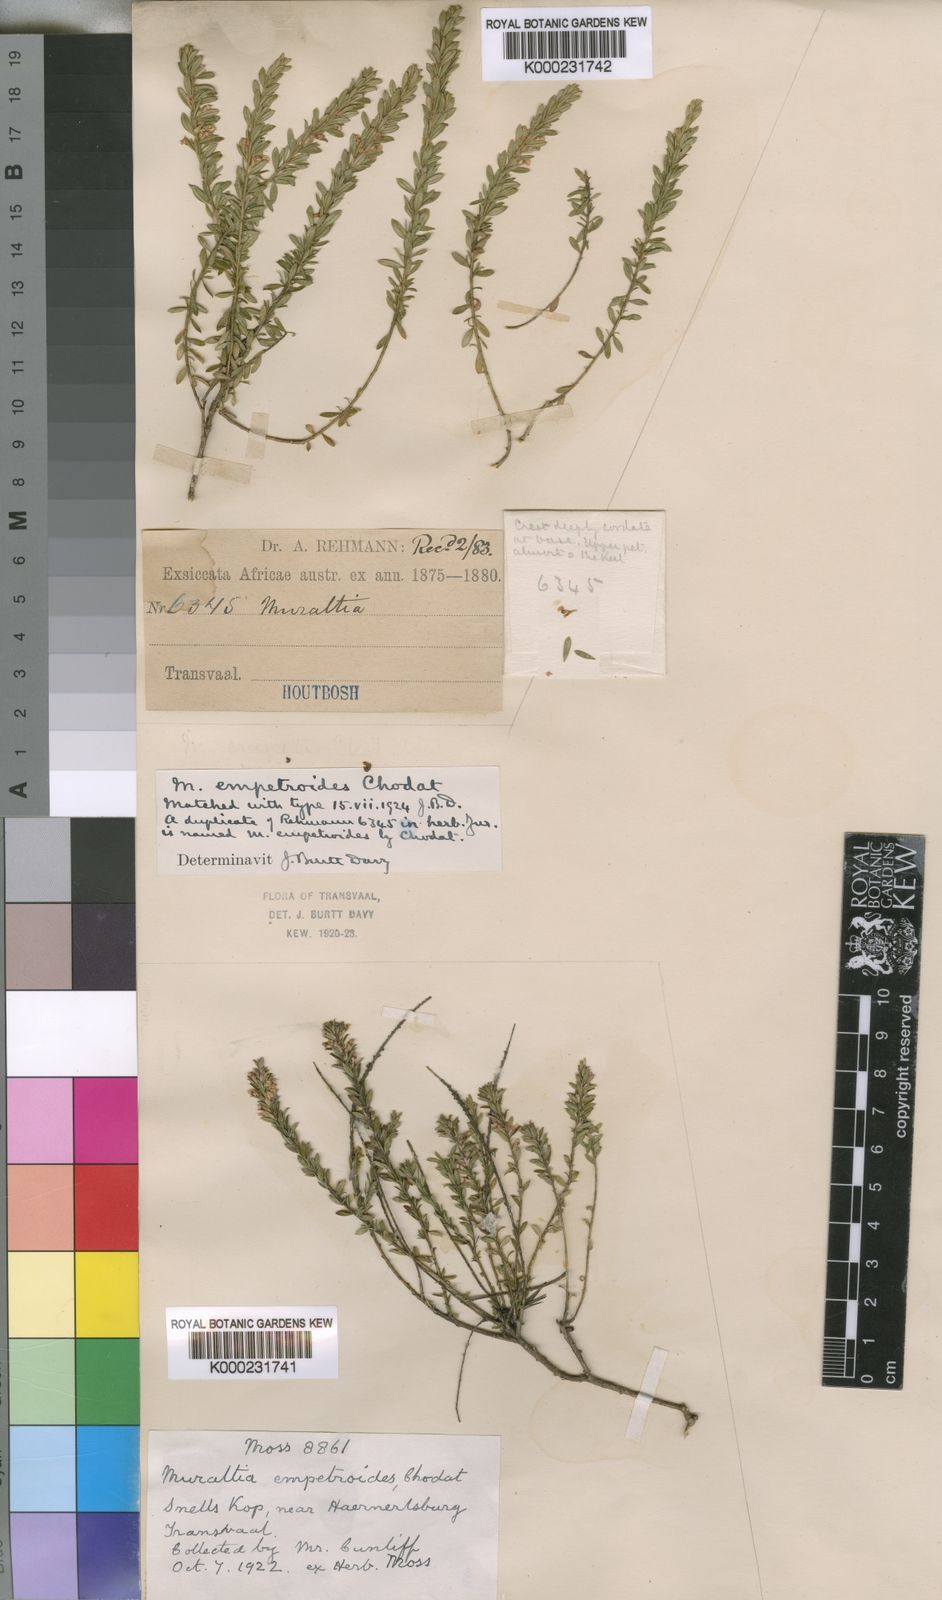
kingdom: Plantae
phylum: Tracheophyta
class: Magnoliopsida
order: Fabales
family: Polygalaceae
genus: Muraltia
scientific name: Muraltia empetroides
